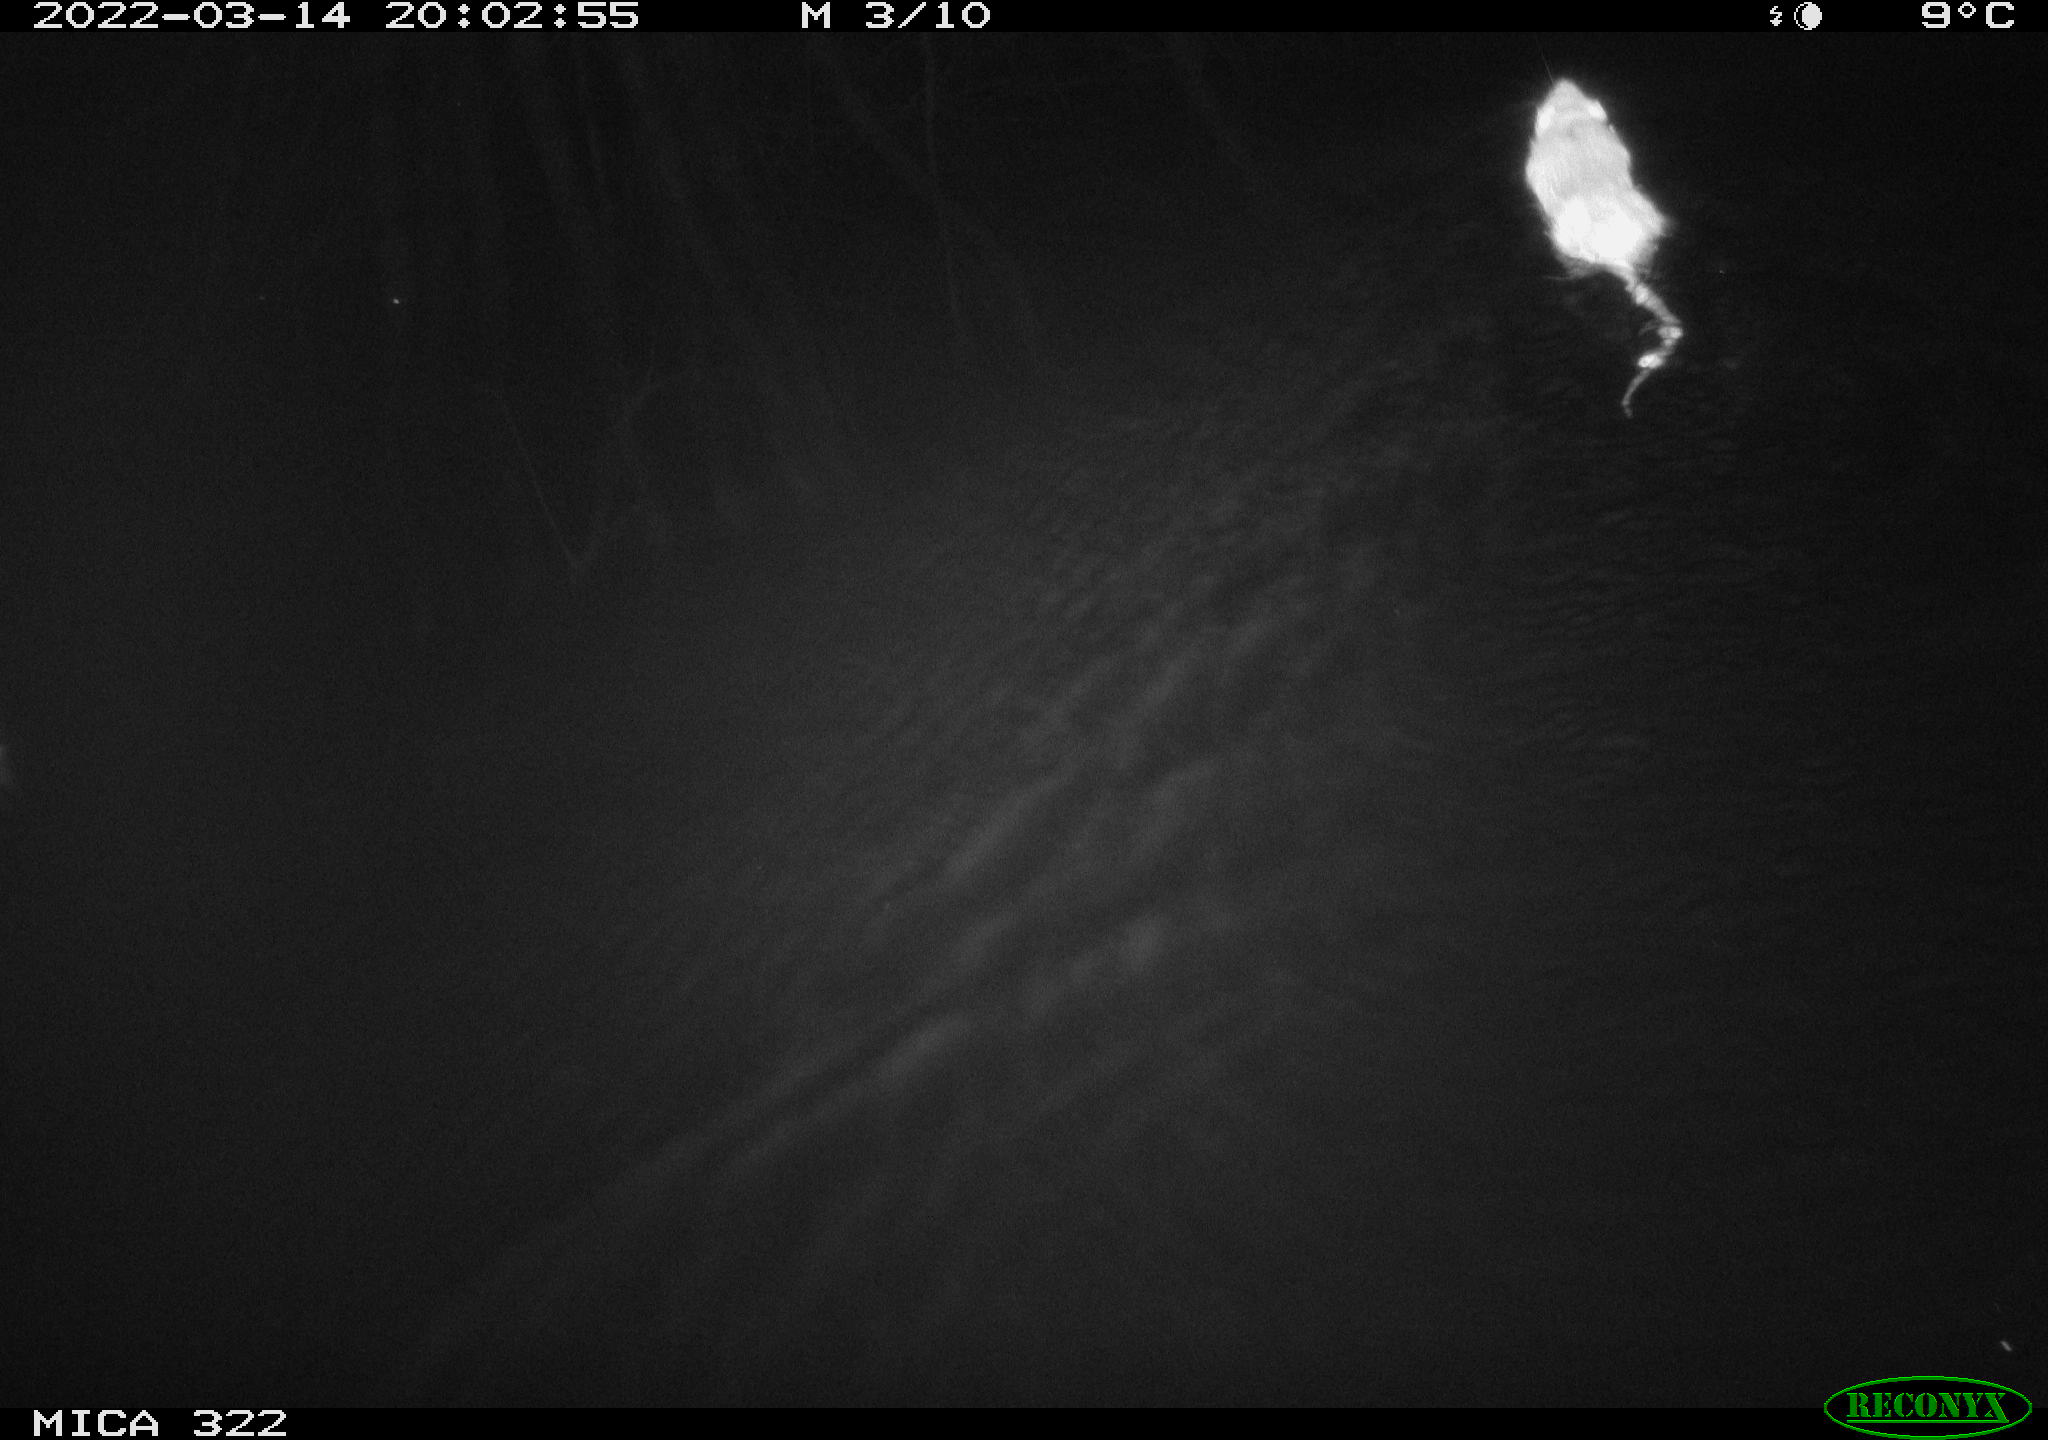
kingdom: Animalia
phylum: Chordata
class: Mammalia
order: Rodentia
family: Cricetidae
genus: Ondatra
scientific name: Ondatra zibethicus
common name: Muskrat
